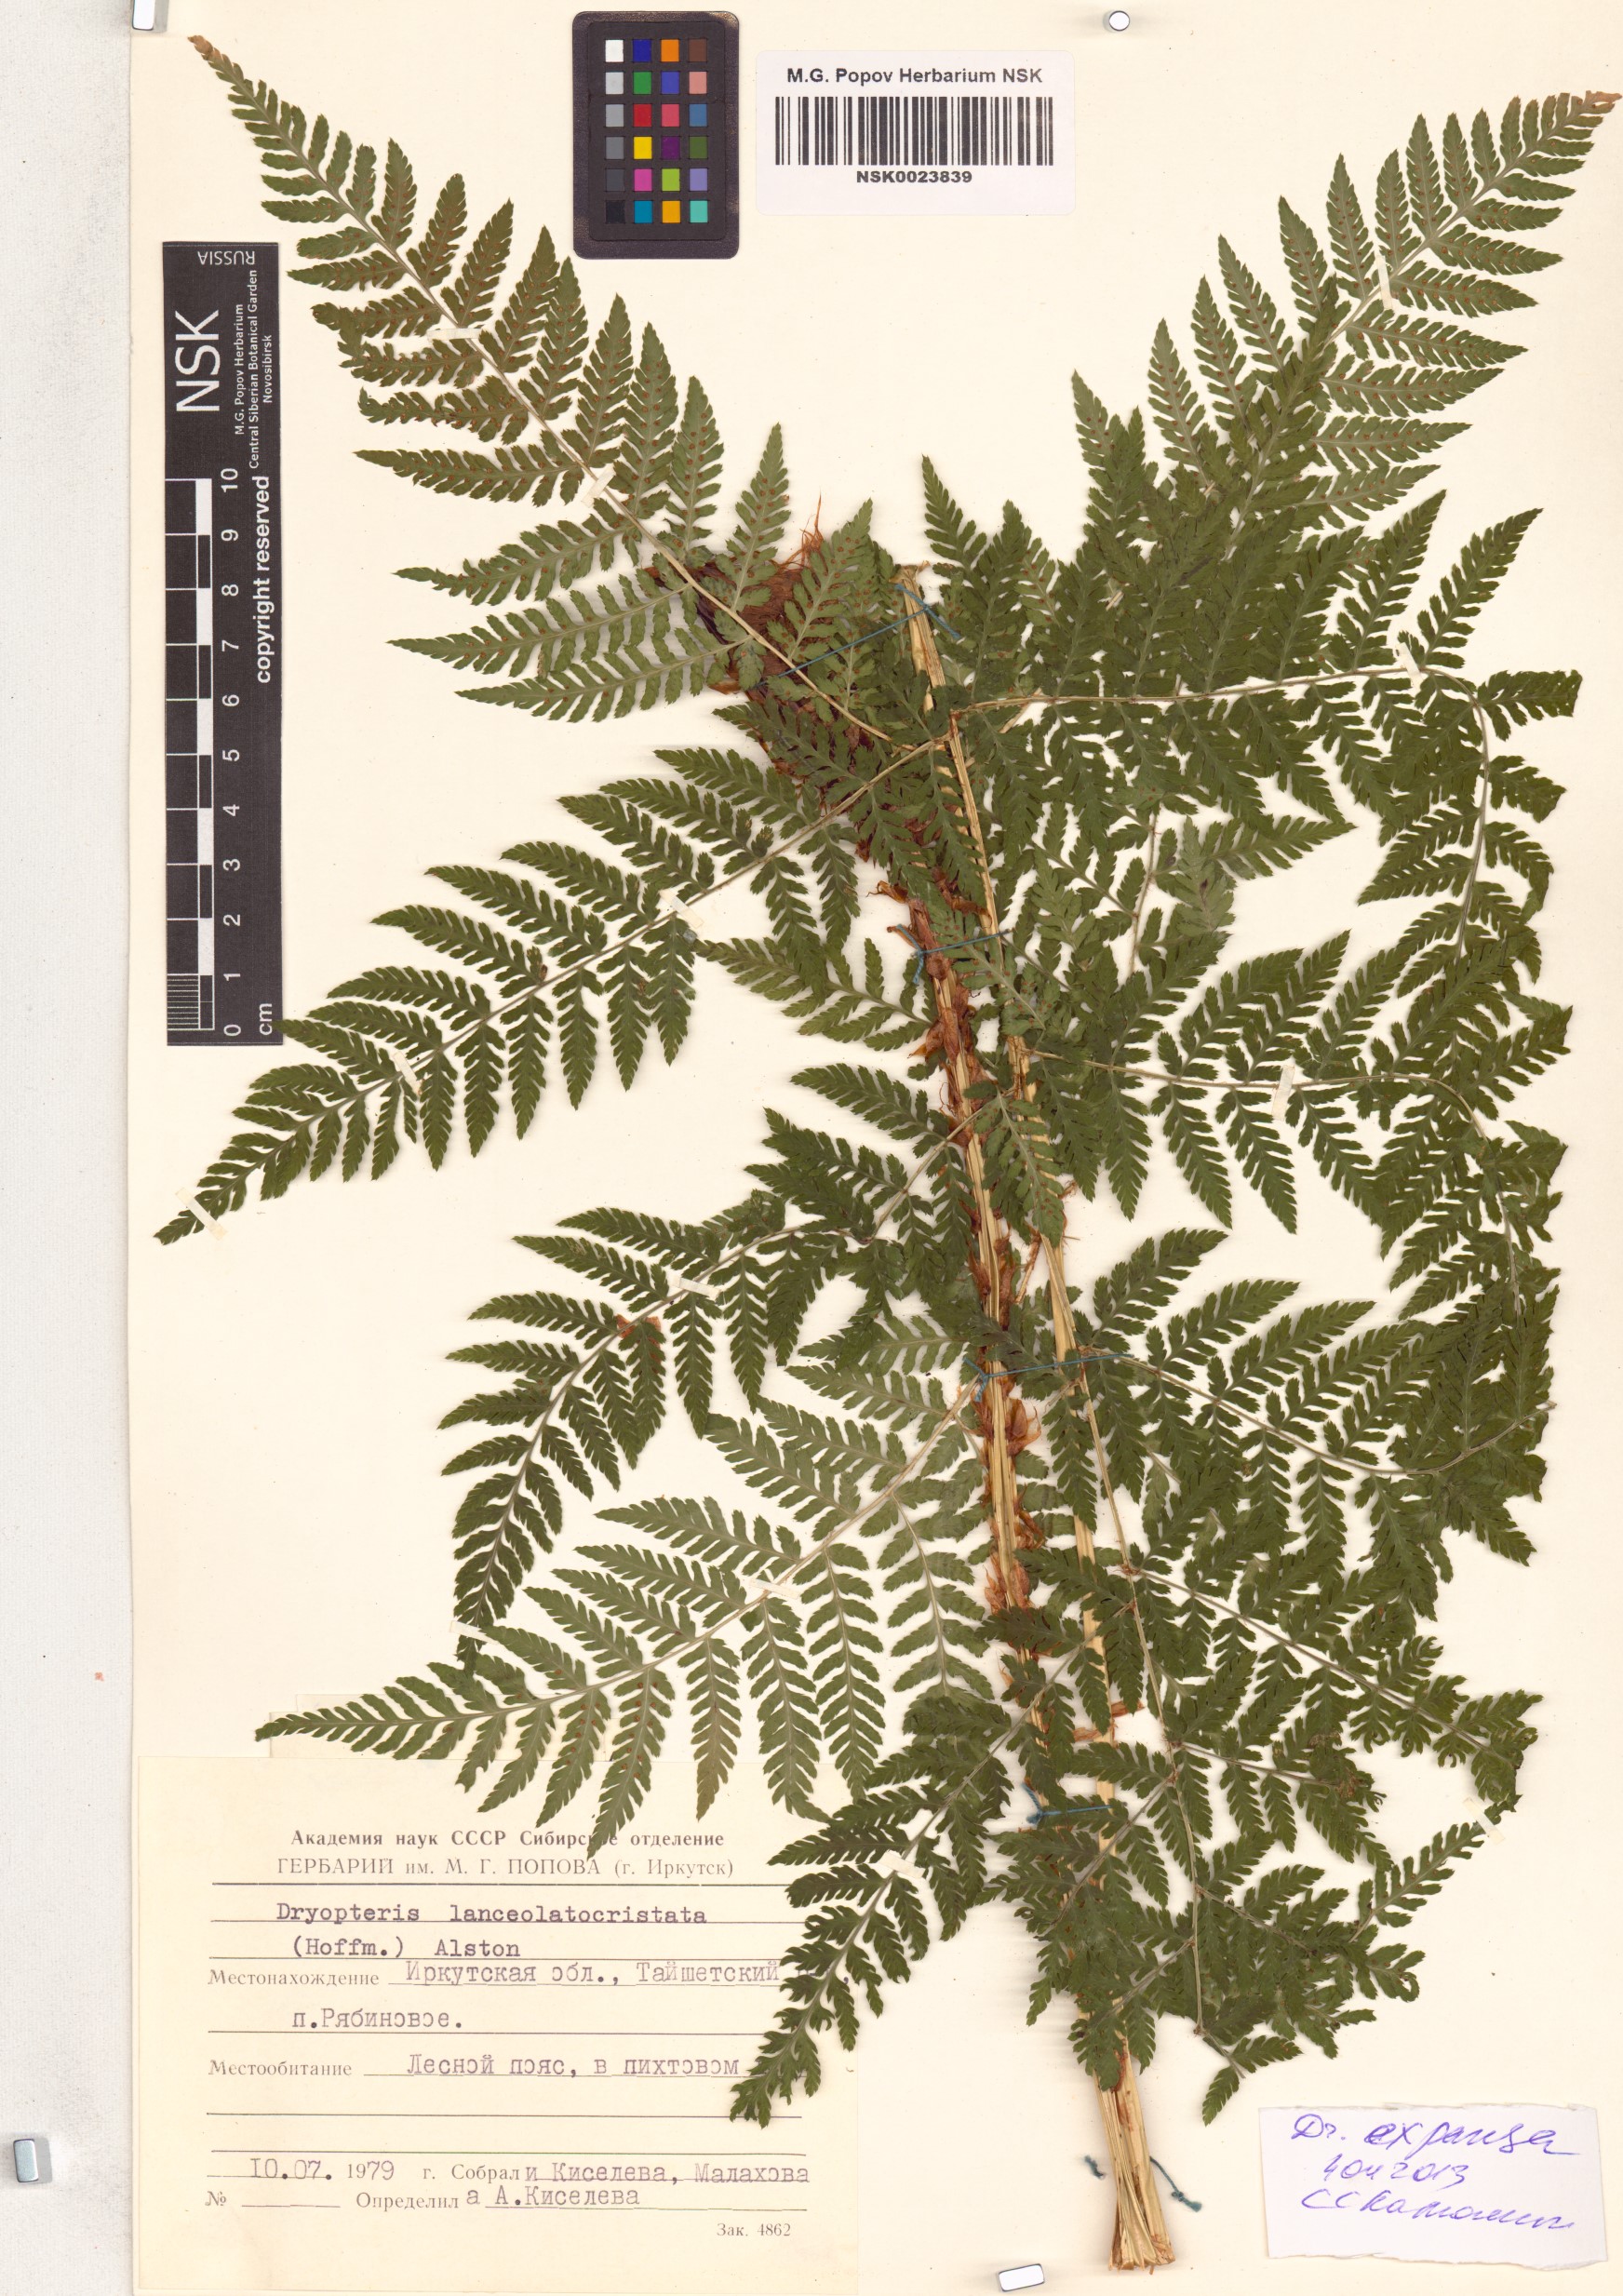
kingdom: Plantae
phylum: Tracheophyta
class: Polypodiopsida
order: Polypodiales
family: Dryopteridaceae
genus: Dryopteris
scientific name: Dryopteris expansa
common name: Northern buckler fern
